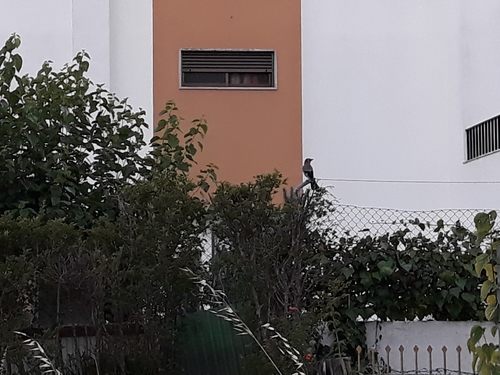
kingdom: Animalia
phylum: Chordata
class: Aves
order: Passeriformes
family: Corvidae
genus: Garrulus
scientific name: Garrulus glandarius
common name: Eurasian jay
